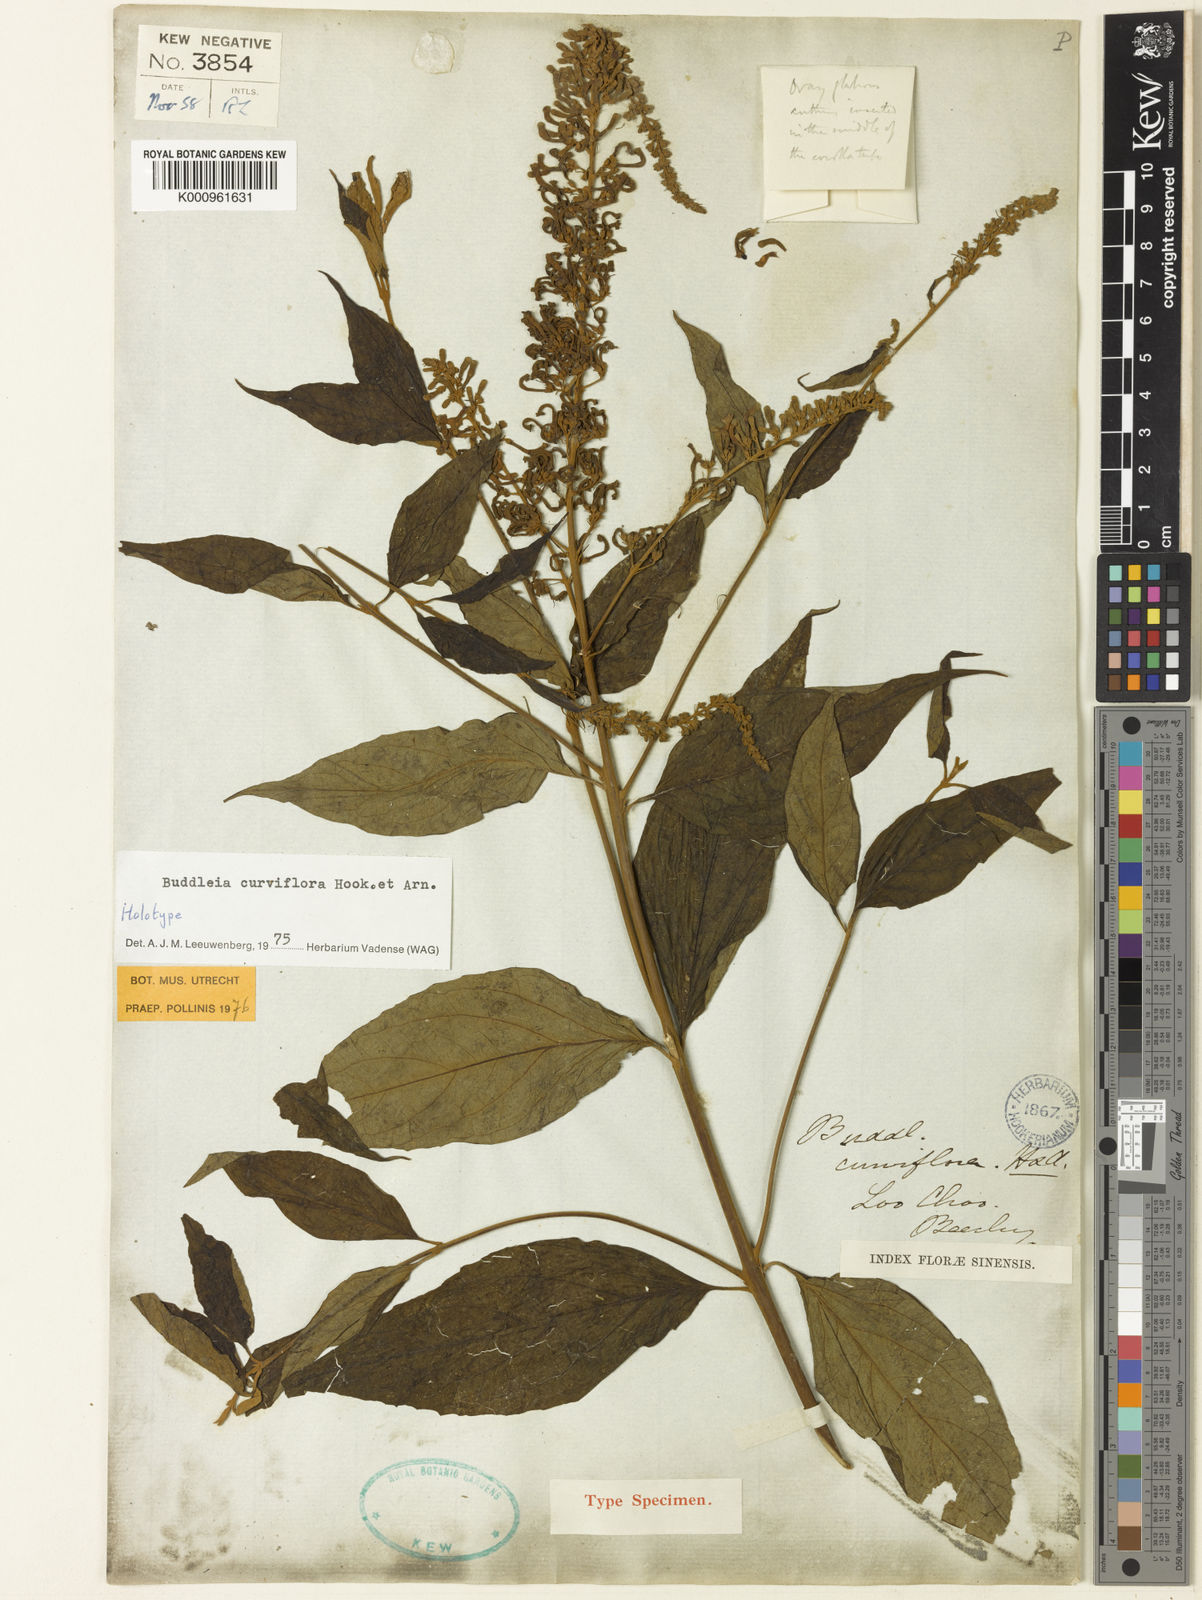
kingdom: Plantae
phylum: Tracheophyta
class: Magnoliopsida
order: Lamiales
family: Scrophulariaceae
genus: Buddleja
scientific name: Buddleja curviflora
